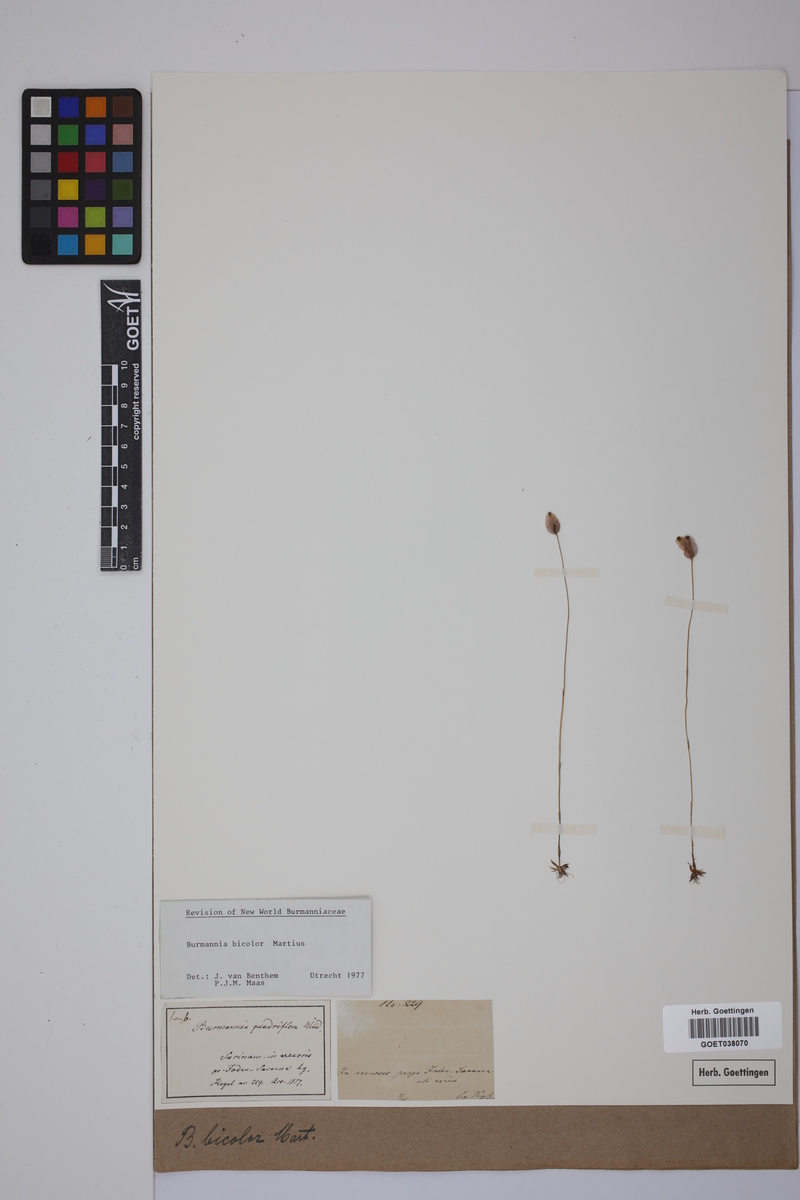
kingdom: Plantae
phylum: Tracheophyta
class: Liliopsida
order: Dioscoreales
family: Burmanniaceae
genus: Burmannia
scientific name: Burmannia bicolor
